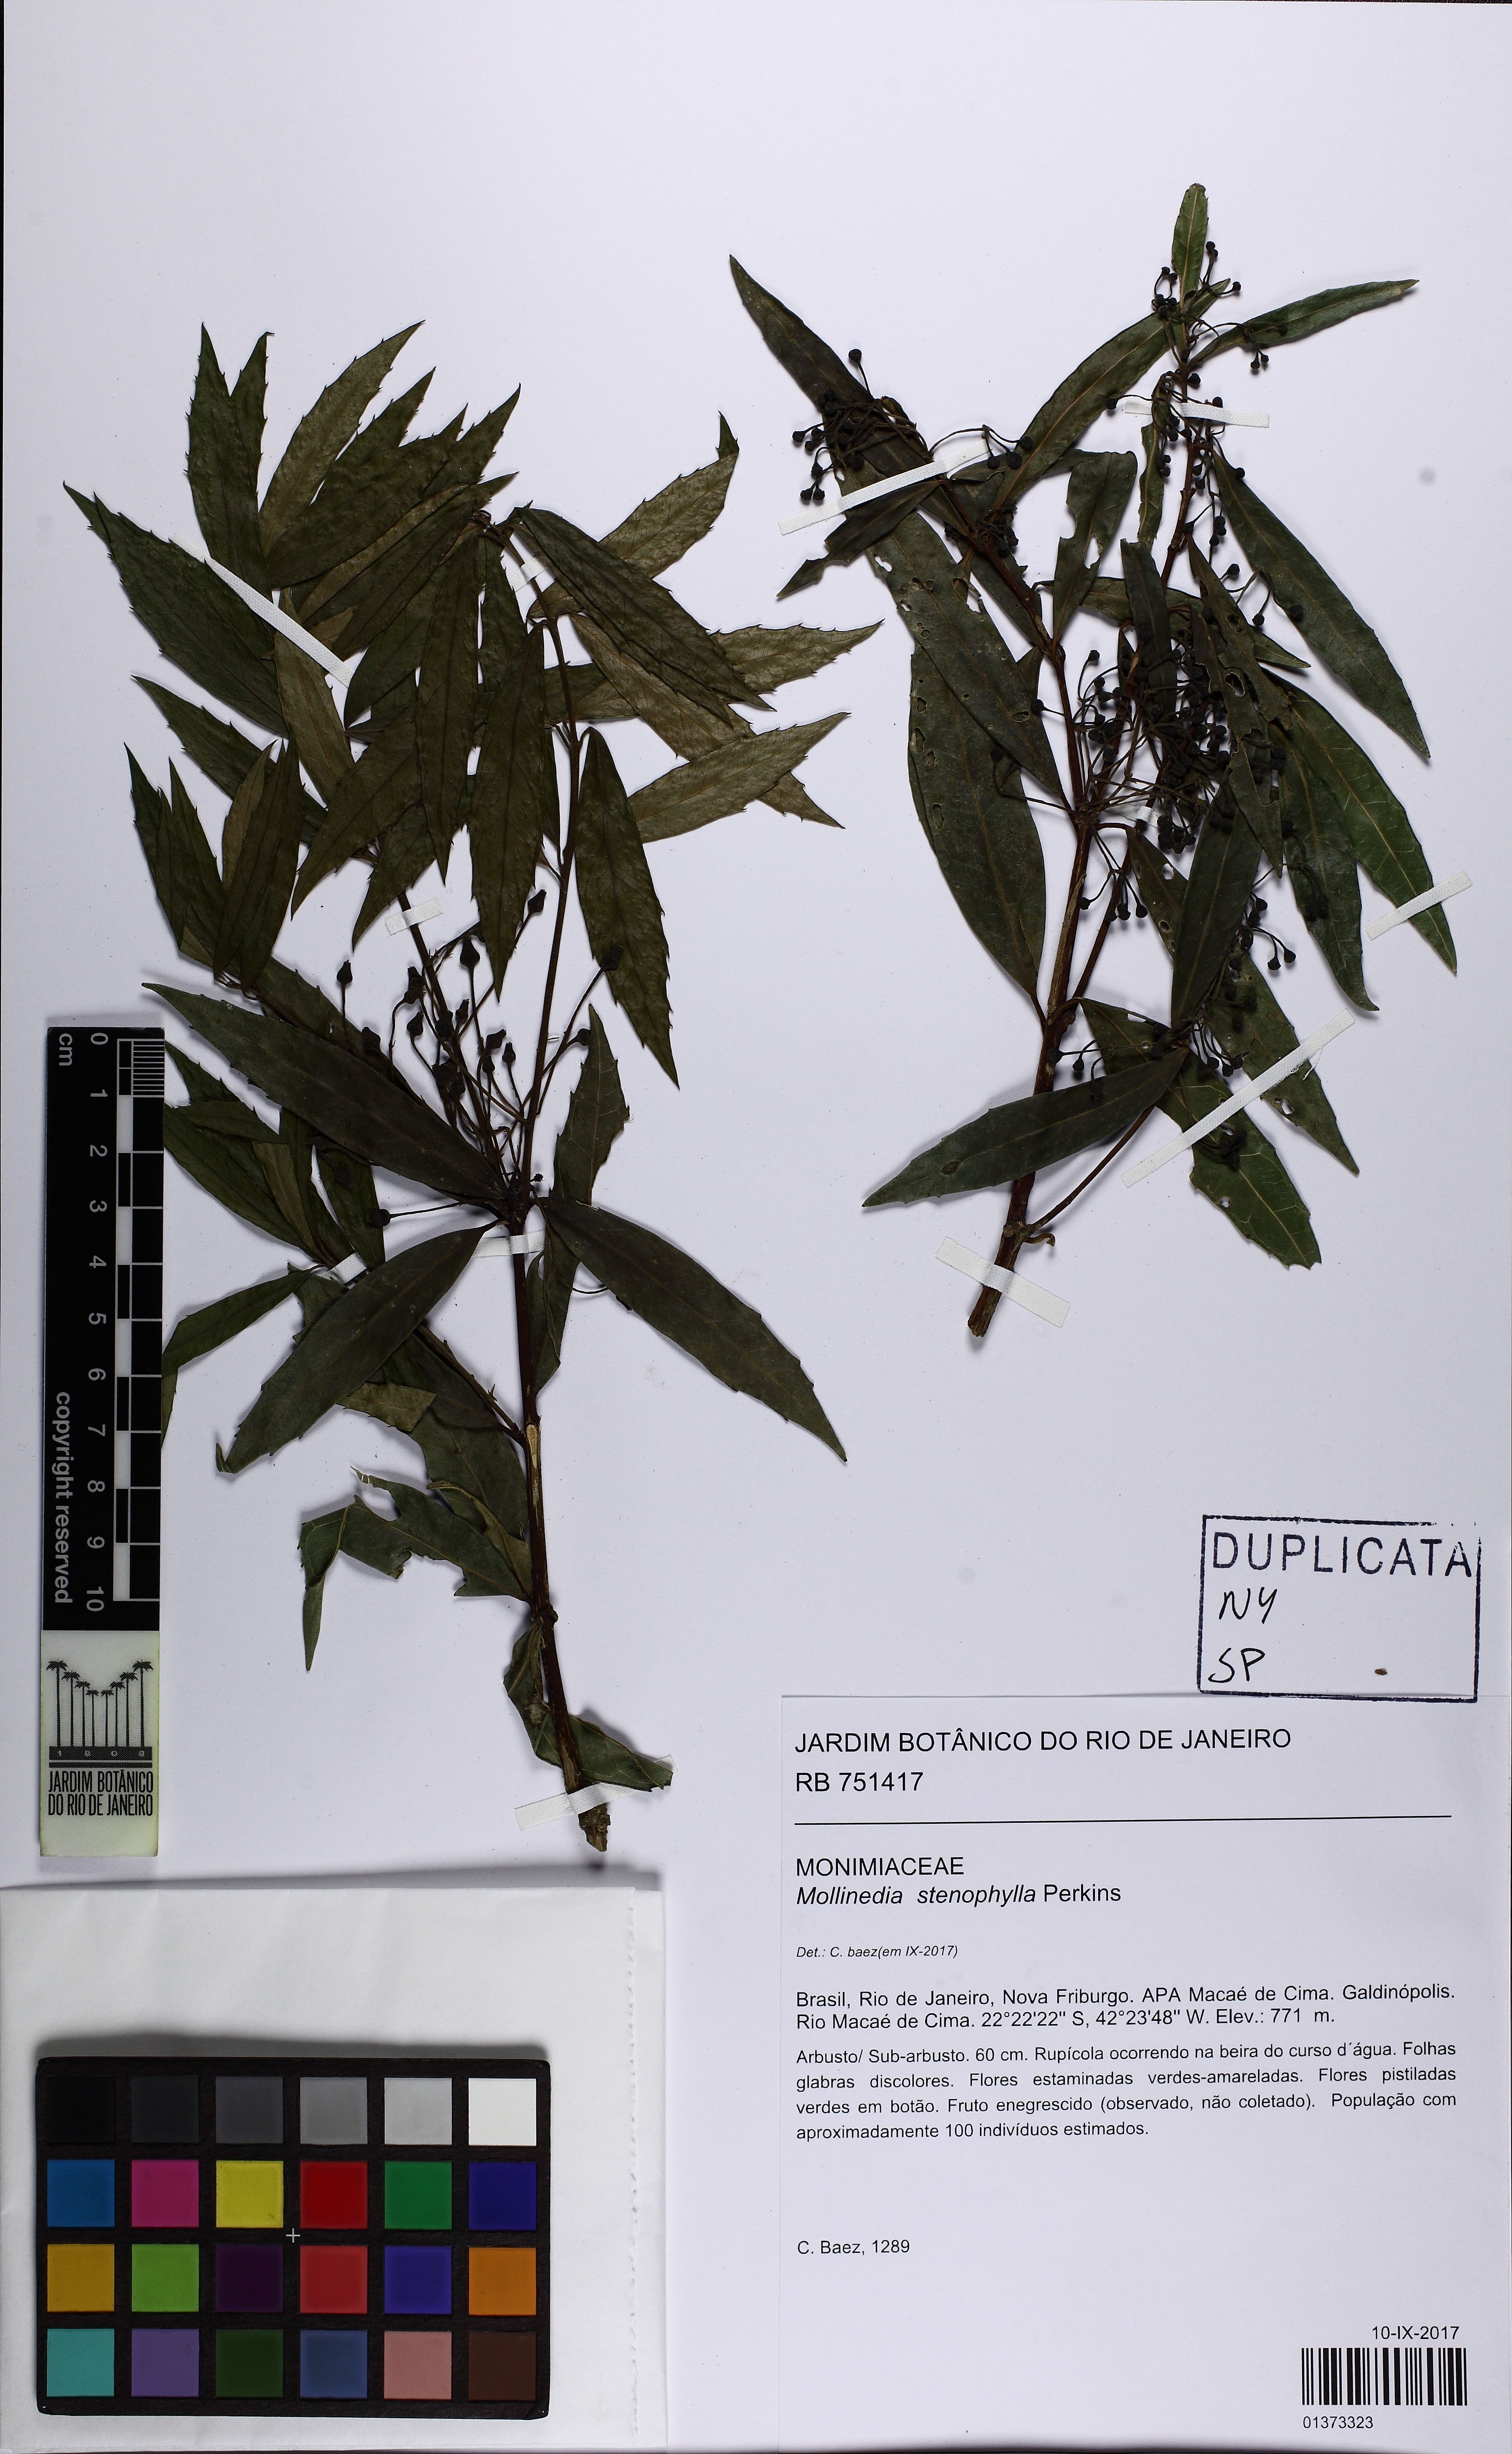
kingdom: Plantae
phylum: Tracheophyta
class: Magnoliopsida
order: Laurales
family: Monimiaceae
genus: Mollinedia
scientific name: Mollinedia stenophylla
